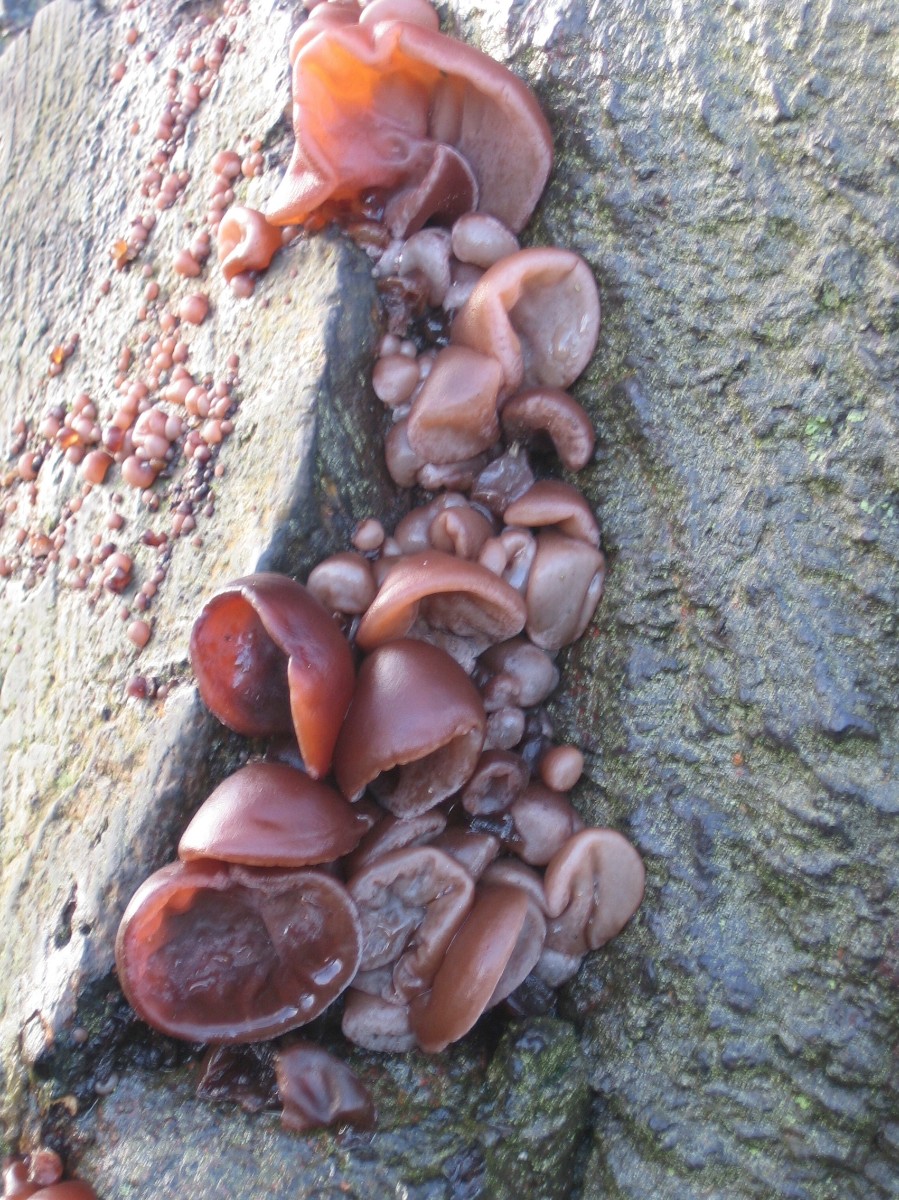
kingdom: Fungi
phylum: Basidiomycota
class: Agaricomycetes
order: Auriculariales
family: Auriculariaceae
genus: Auricularia
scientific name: Auricularia auricula-judae
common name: almindelig judasøre
